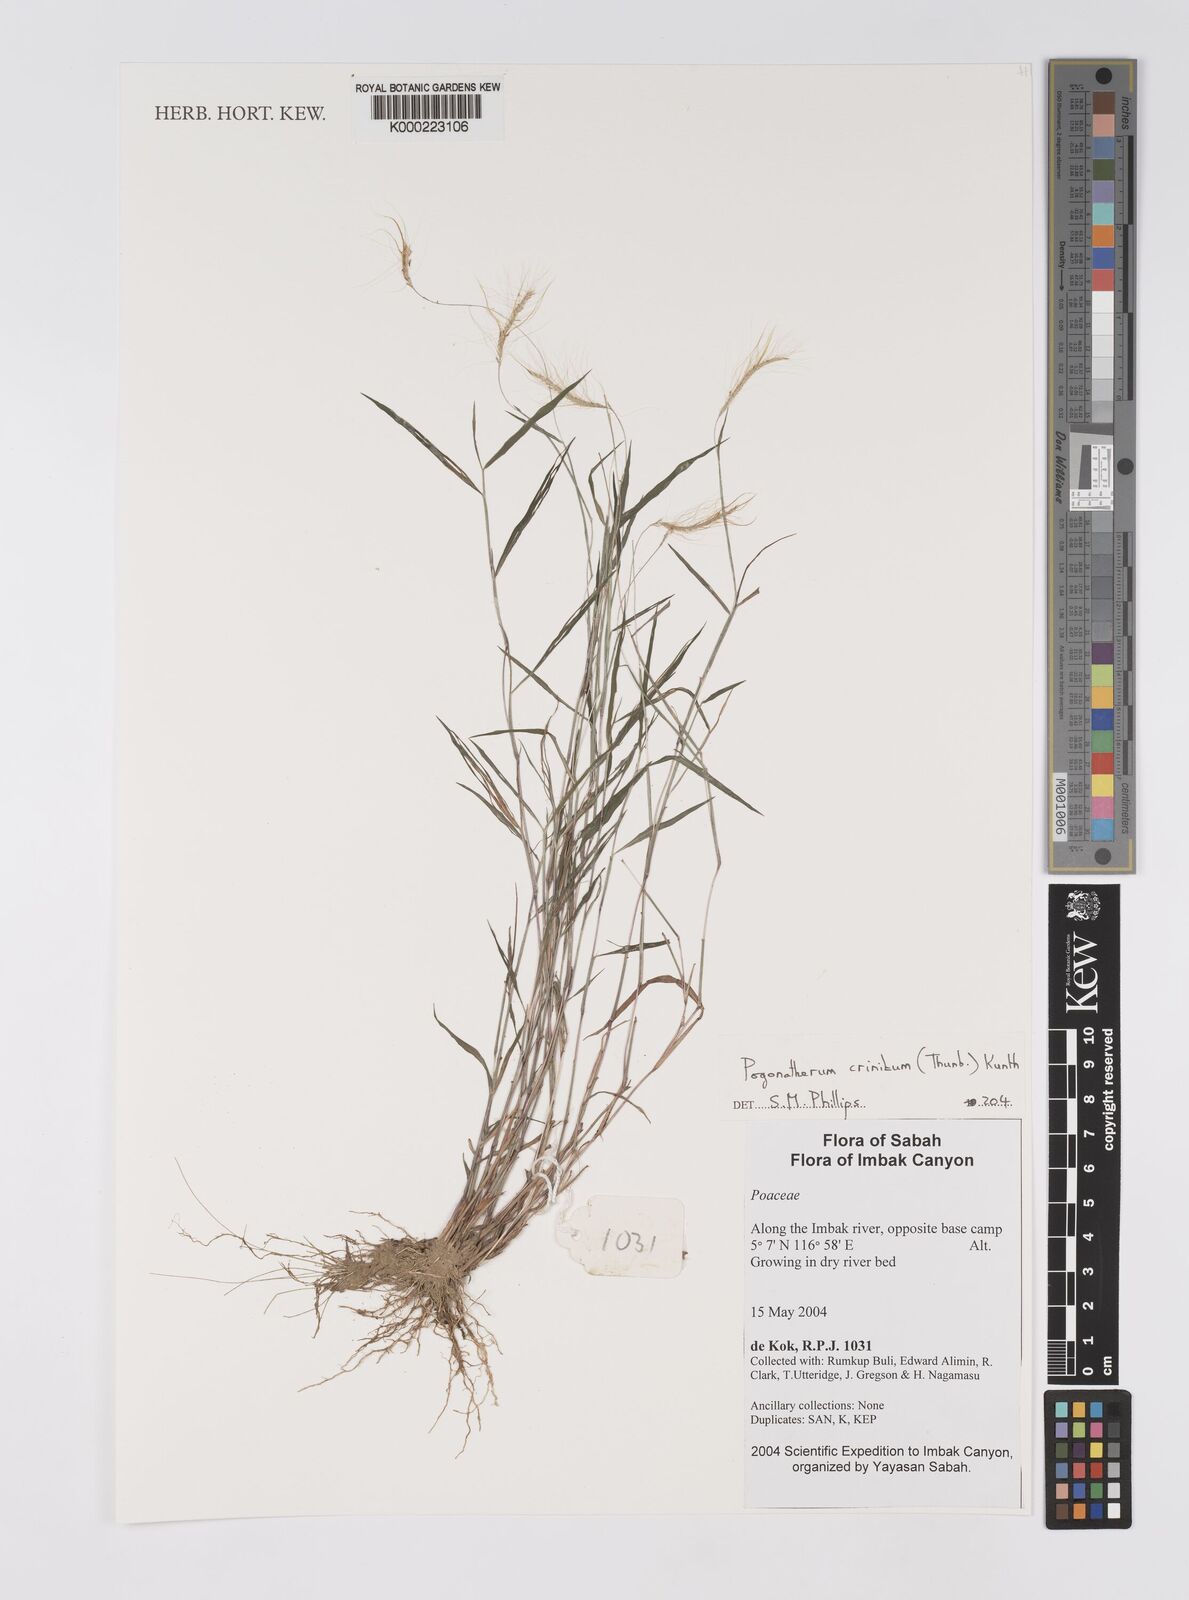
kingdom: Plantae
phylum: Tracheophyta
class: Liliopsida
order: Poales
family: Poaceae
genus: Pogonatherum
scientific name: Pogonatherum crinitum
